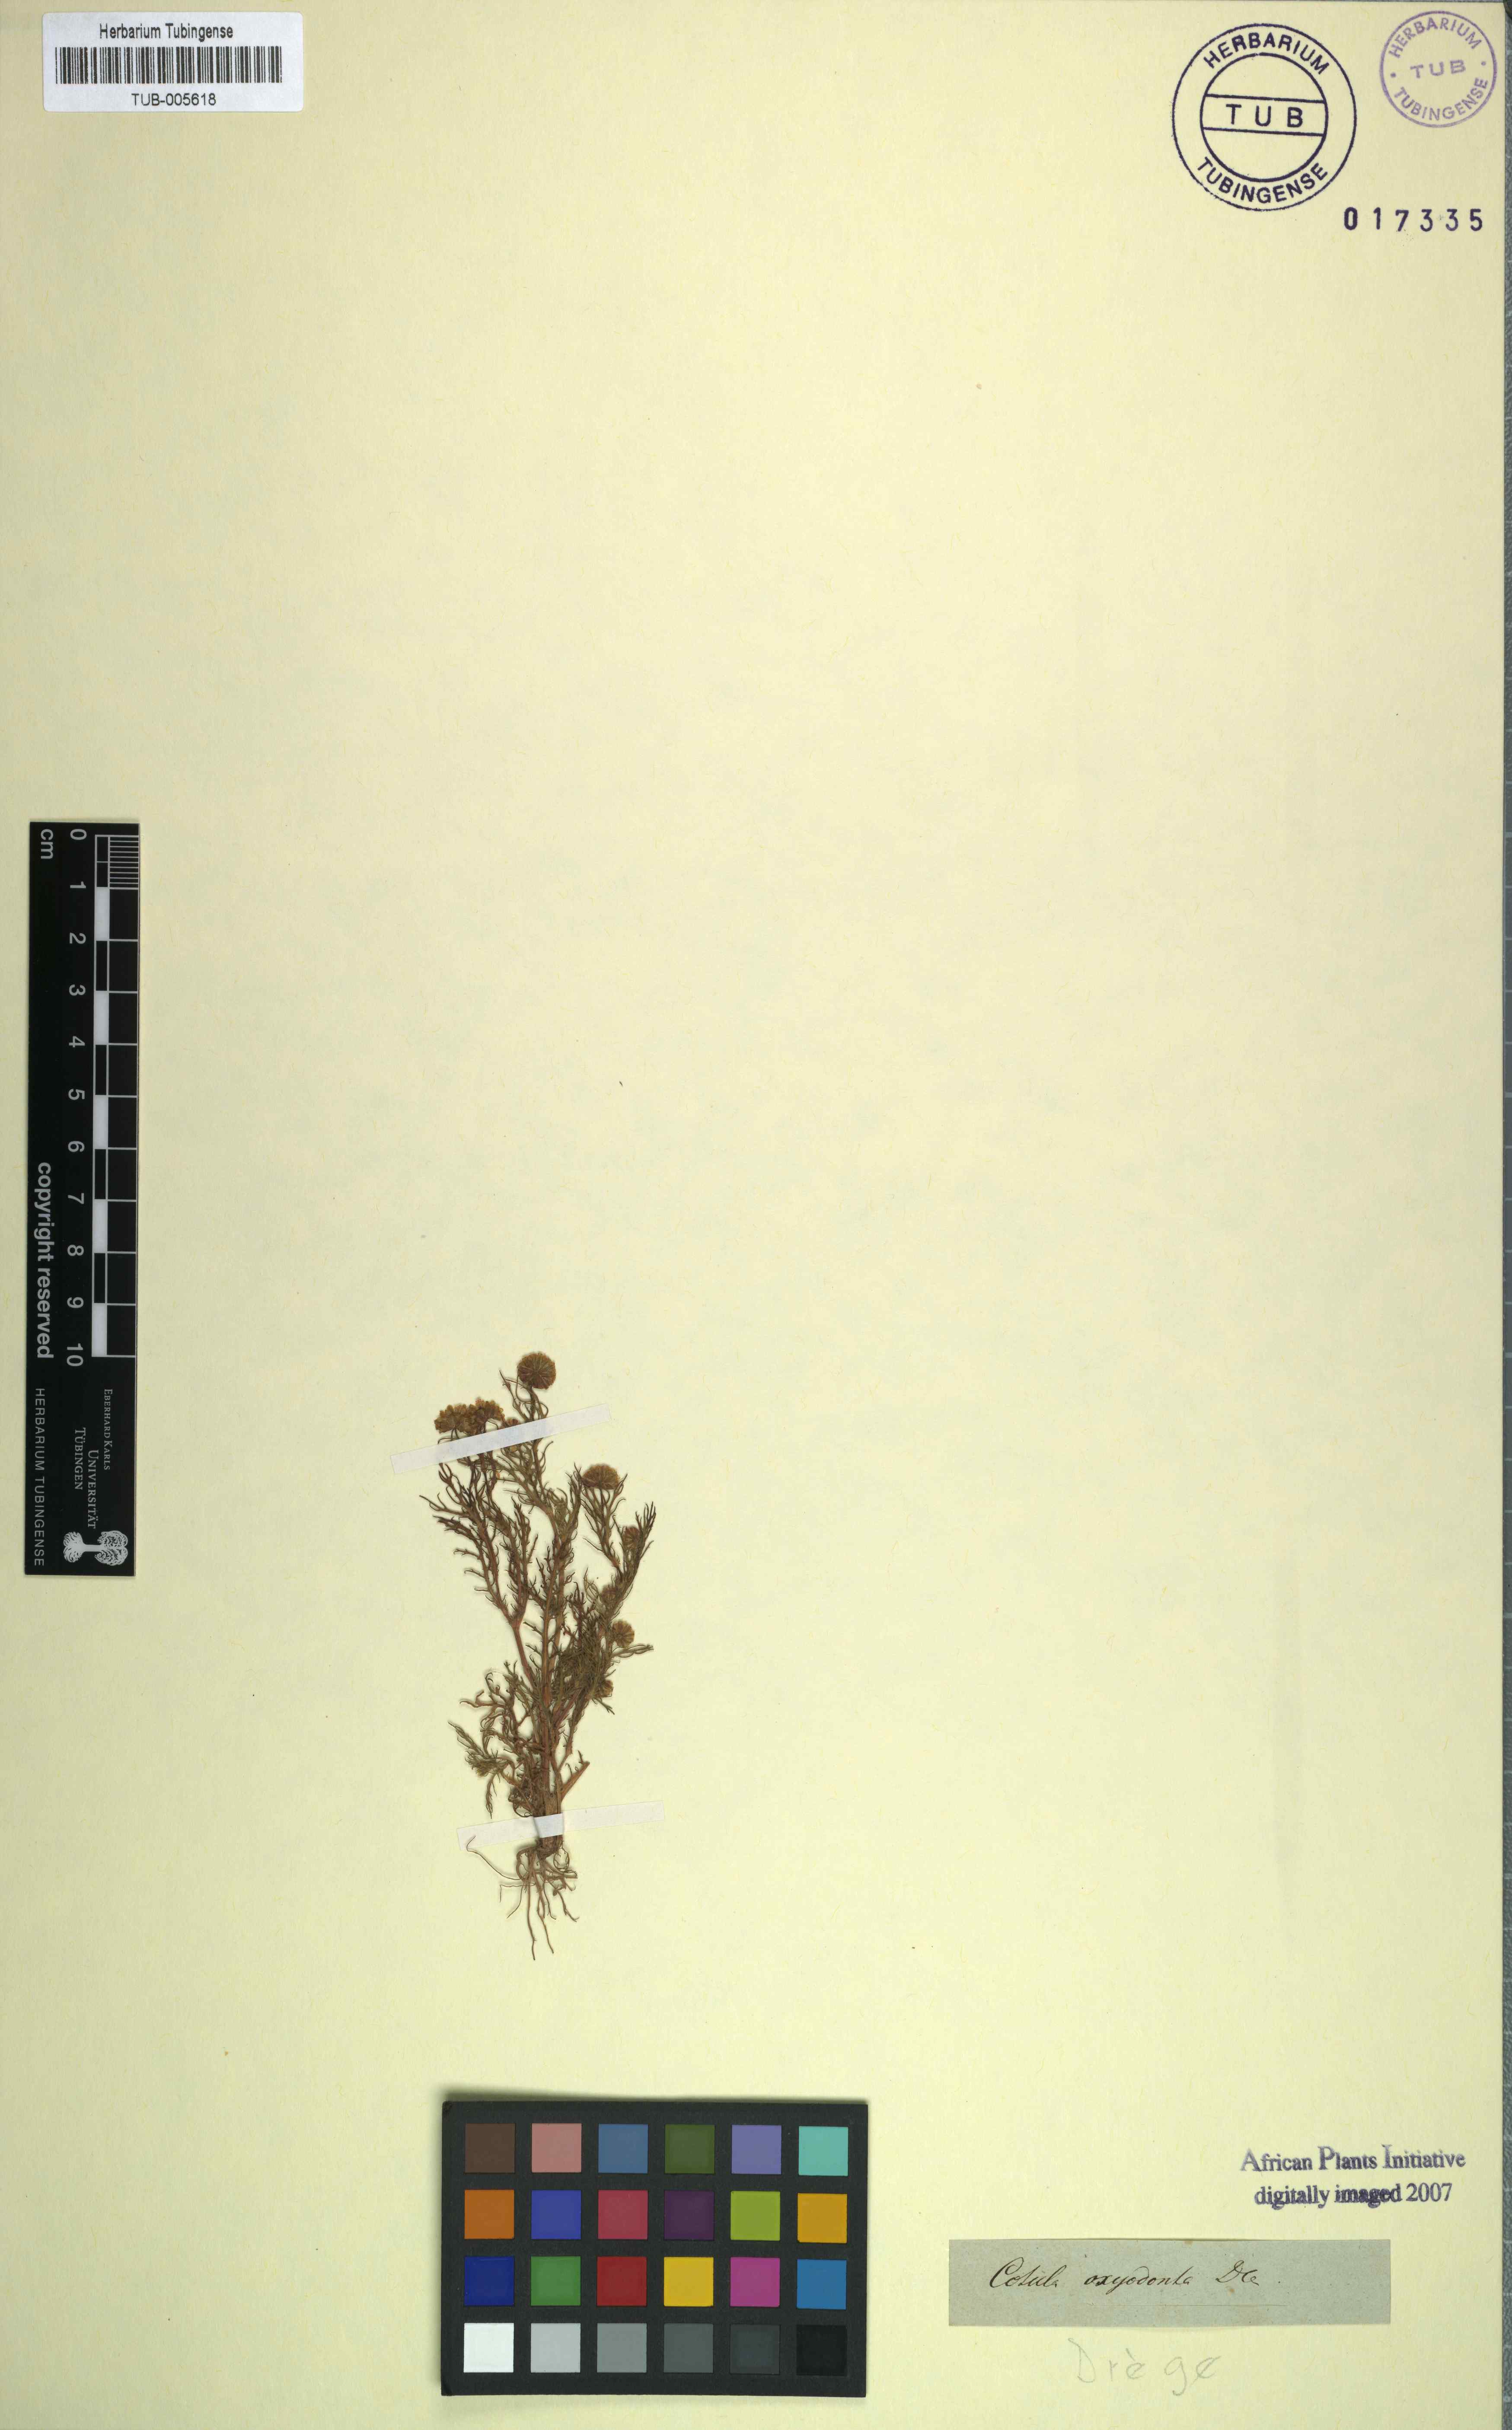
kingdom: Plantae
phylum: Tracheophyta
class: Magnoliopsida
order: Asterales
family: Asteraceae
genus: Cotula
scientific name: Cotula bipinnata
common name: Ferny buttonweed
